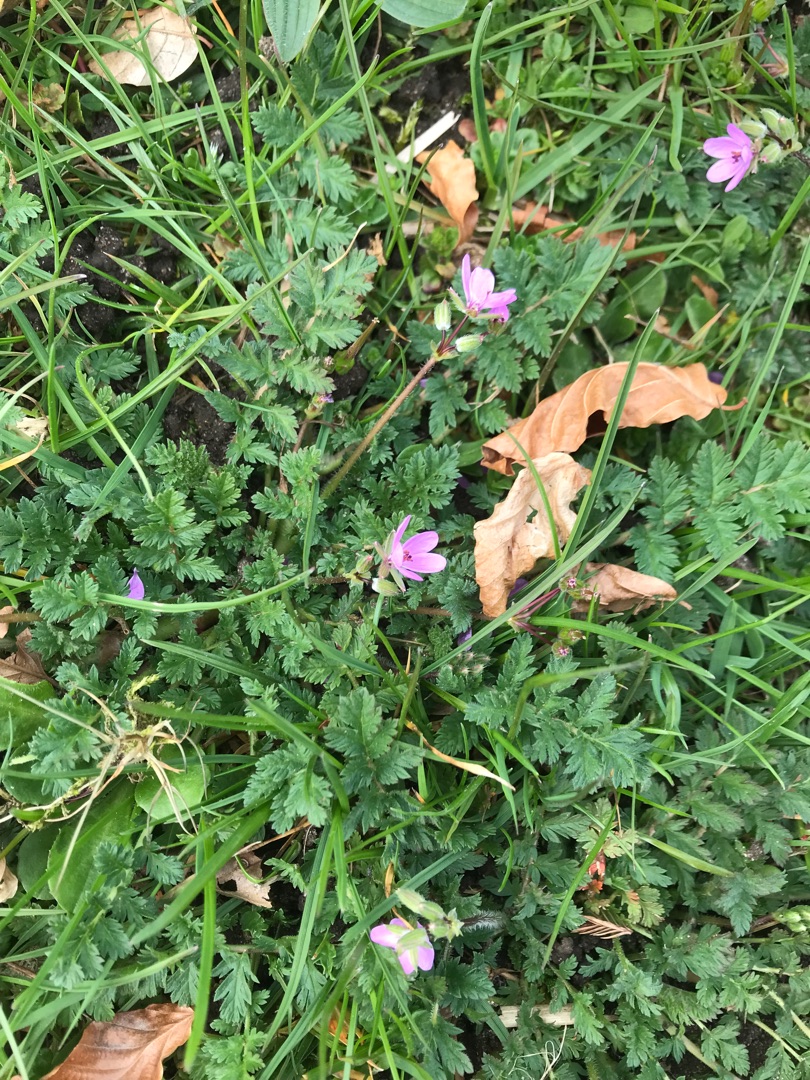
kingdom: Plantae
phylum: Tracheophyta
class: Magnoliopsida
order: Geraniales
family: Geraniaceae
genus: Erodium
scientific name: Erodium cicutarium
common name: Hejrenæb
